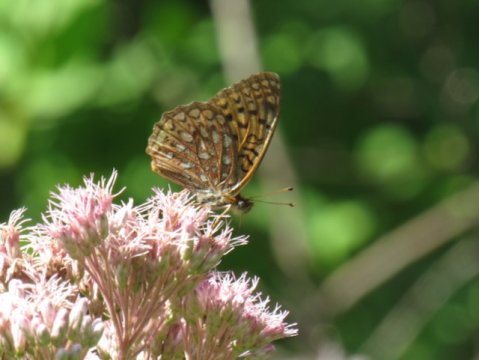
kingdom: Animalia
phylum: Arthropoda
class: Insecta
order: Lepidoptera
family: Nymphalidae
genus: Speyeria
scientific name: Speyeria atlantis
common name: Atlantis Fritillary
